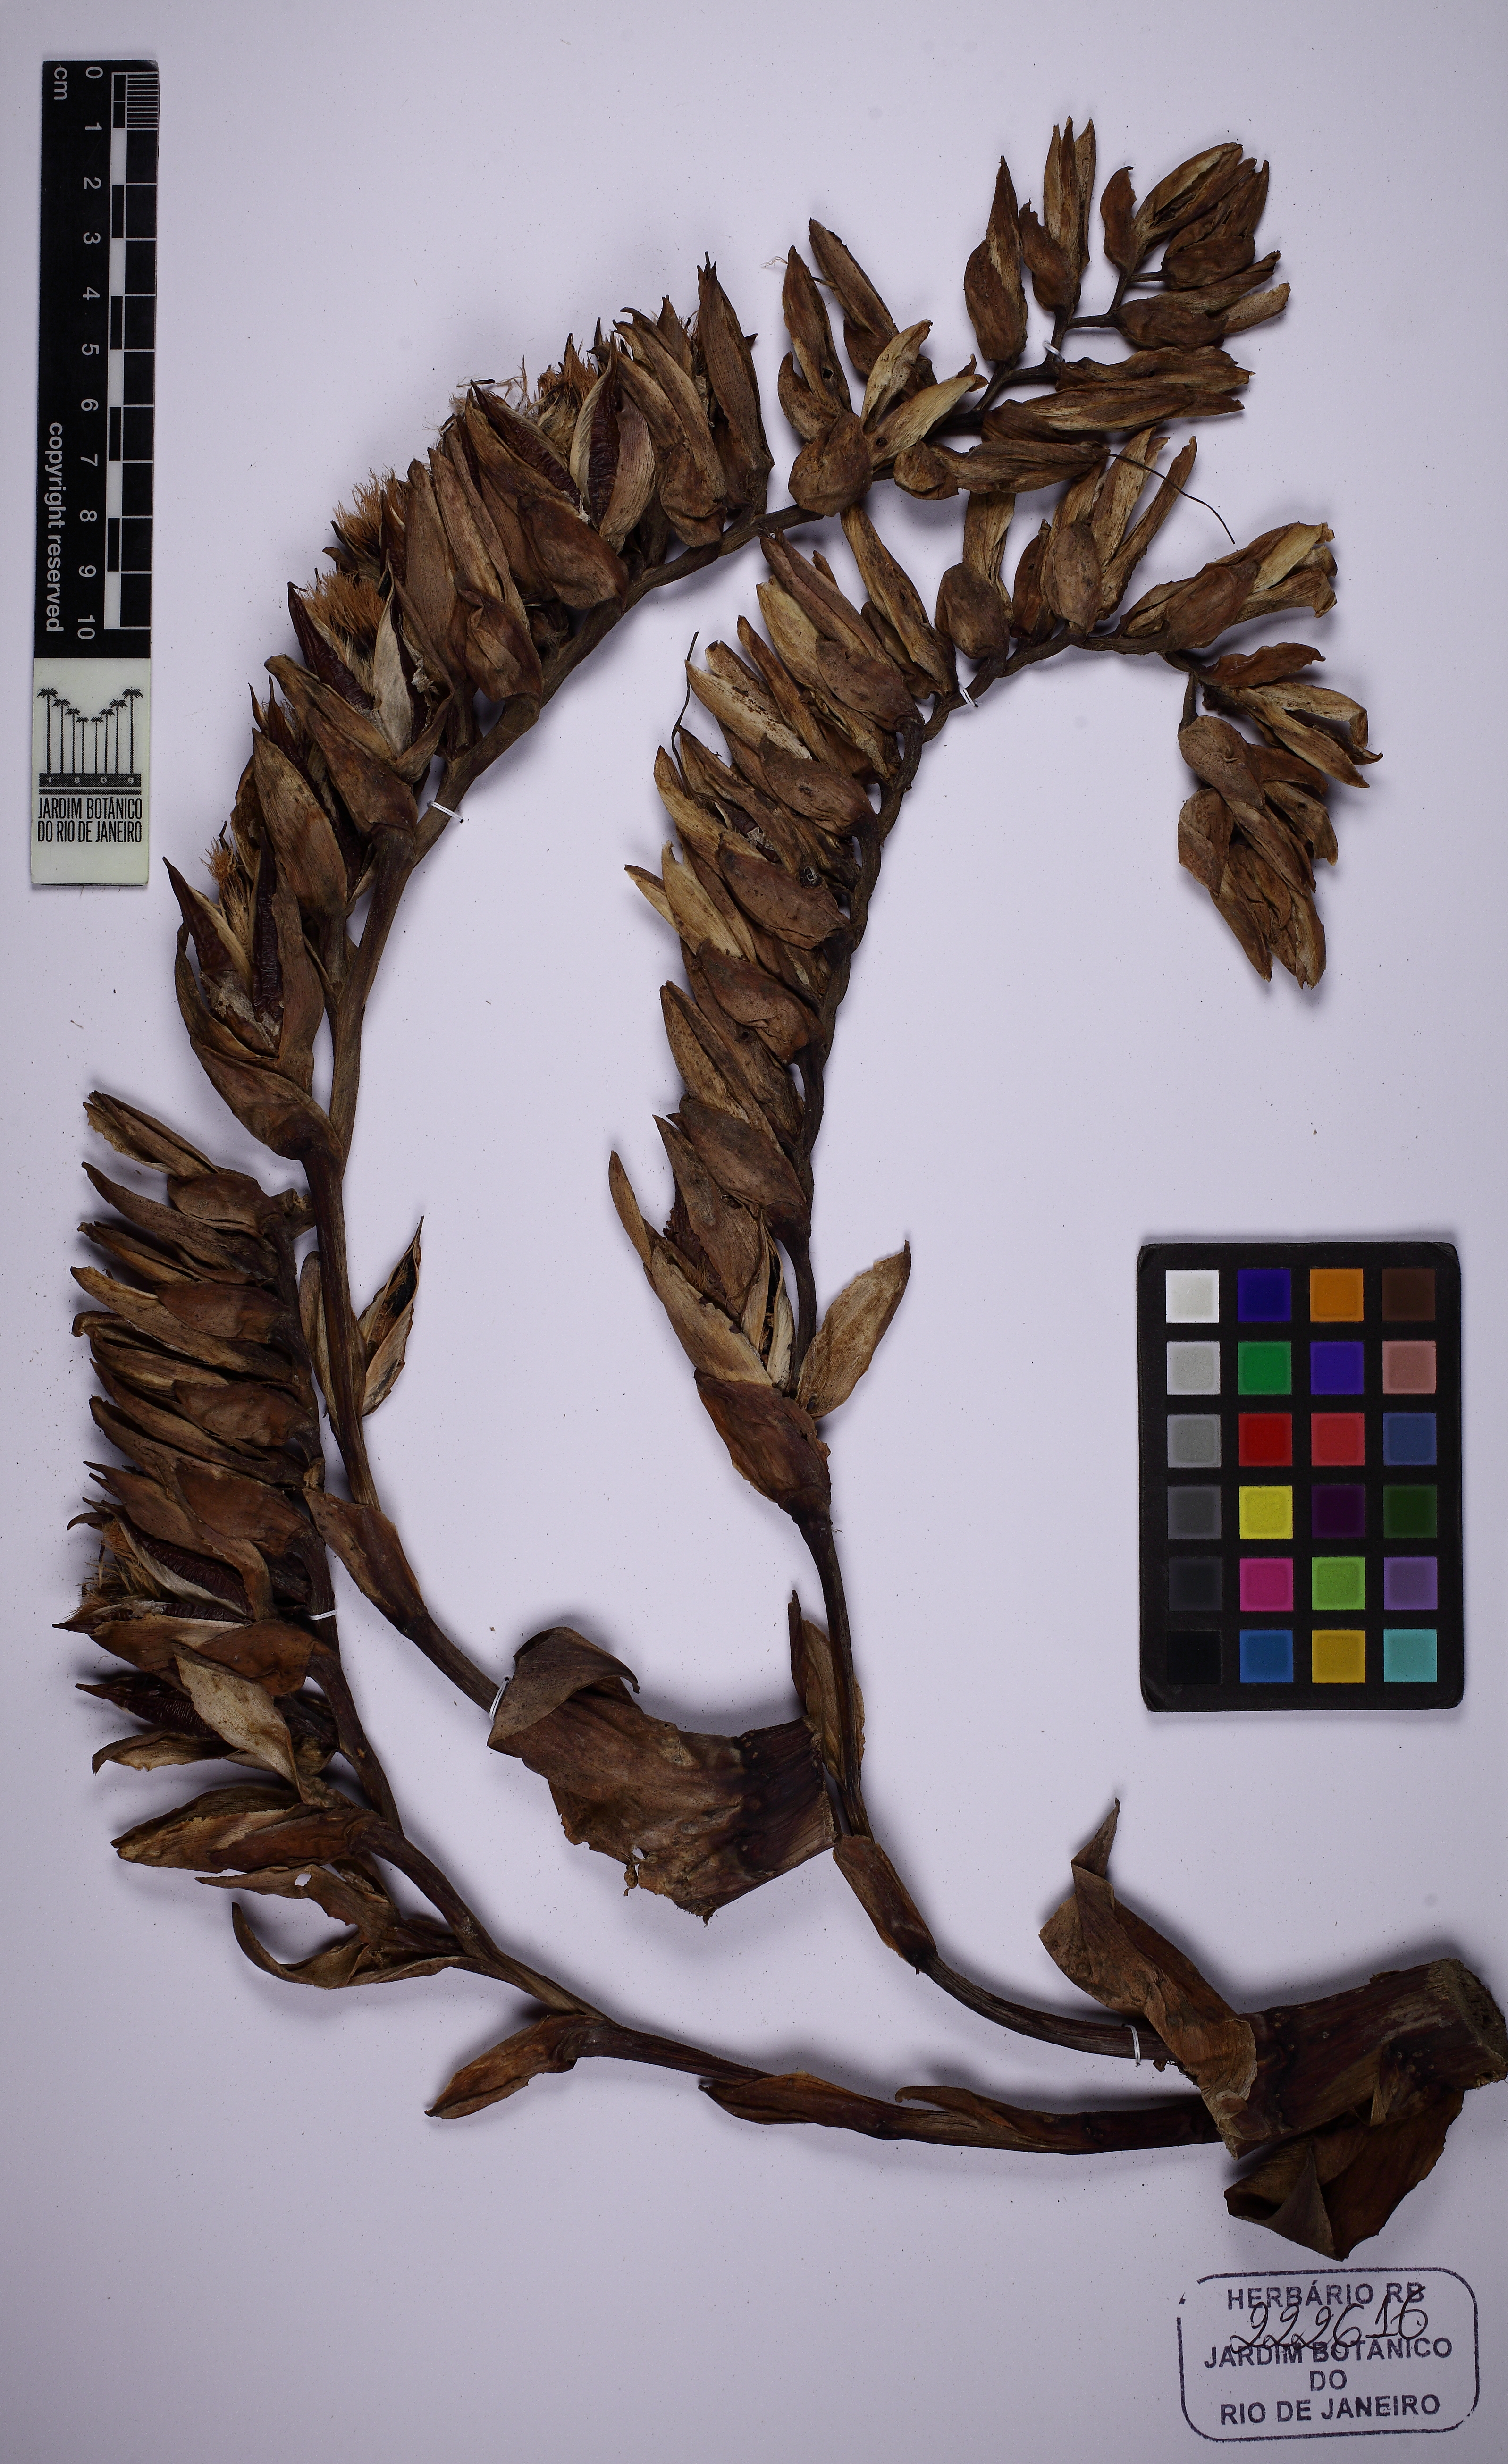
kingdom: Plantae
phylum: Tracheophyta
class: Liliopsida
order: Poales
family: Bromeliaceae
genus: Alcantarea
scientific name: Alcantarea imperialis
